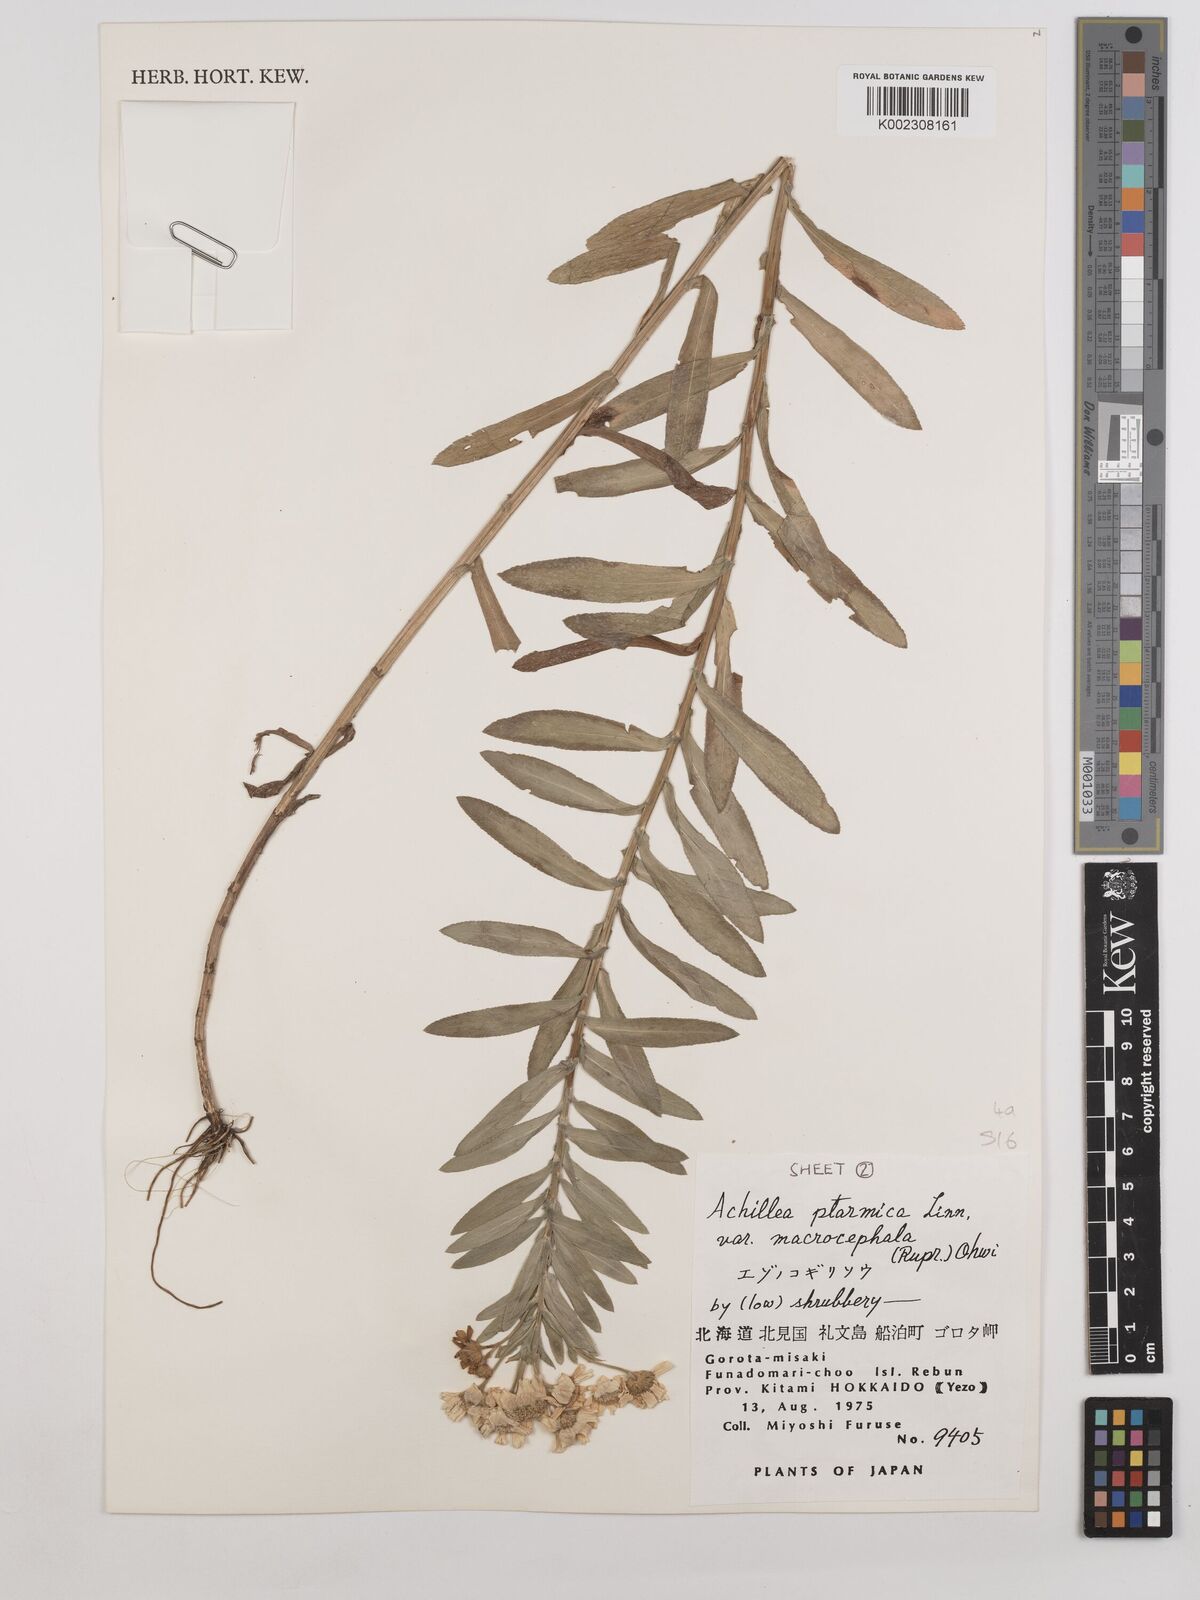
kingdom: Plantae
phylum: Tracheophyta
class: Magnoliopsida
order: Asterales
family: Asteraceae
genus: Achillea
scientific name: Achillea ptarmica
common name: Sneezeweed
